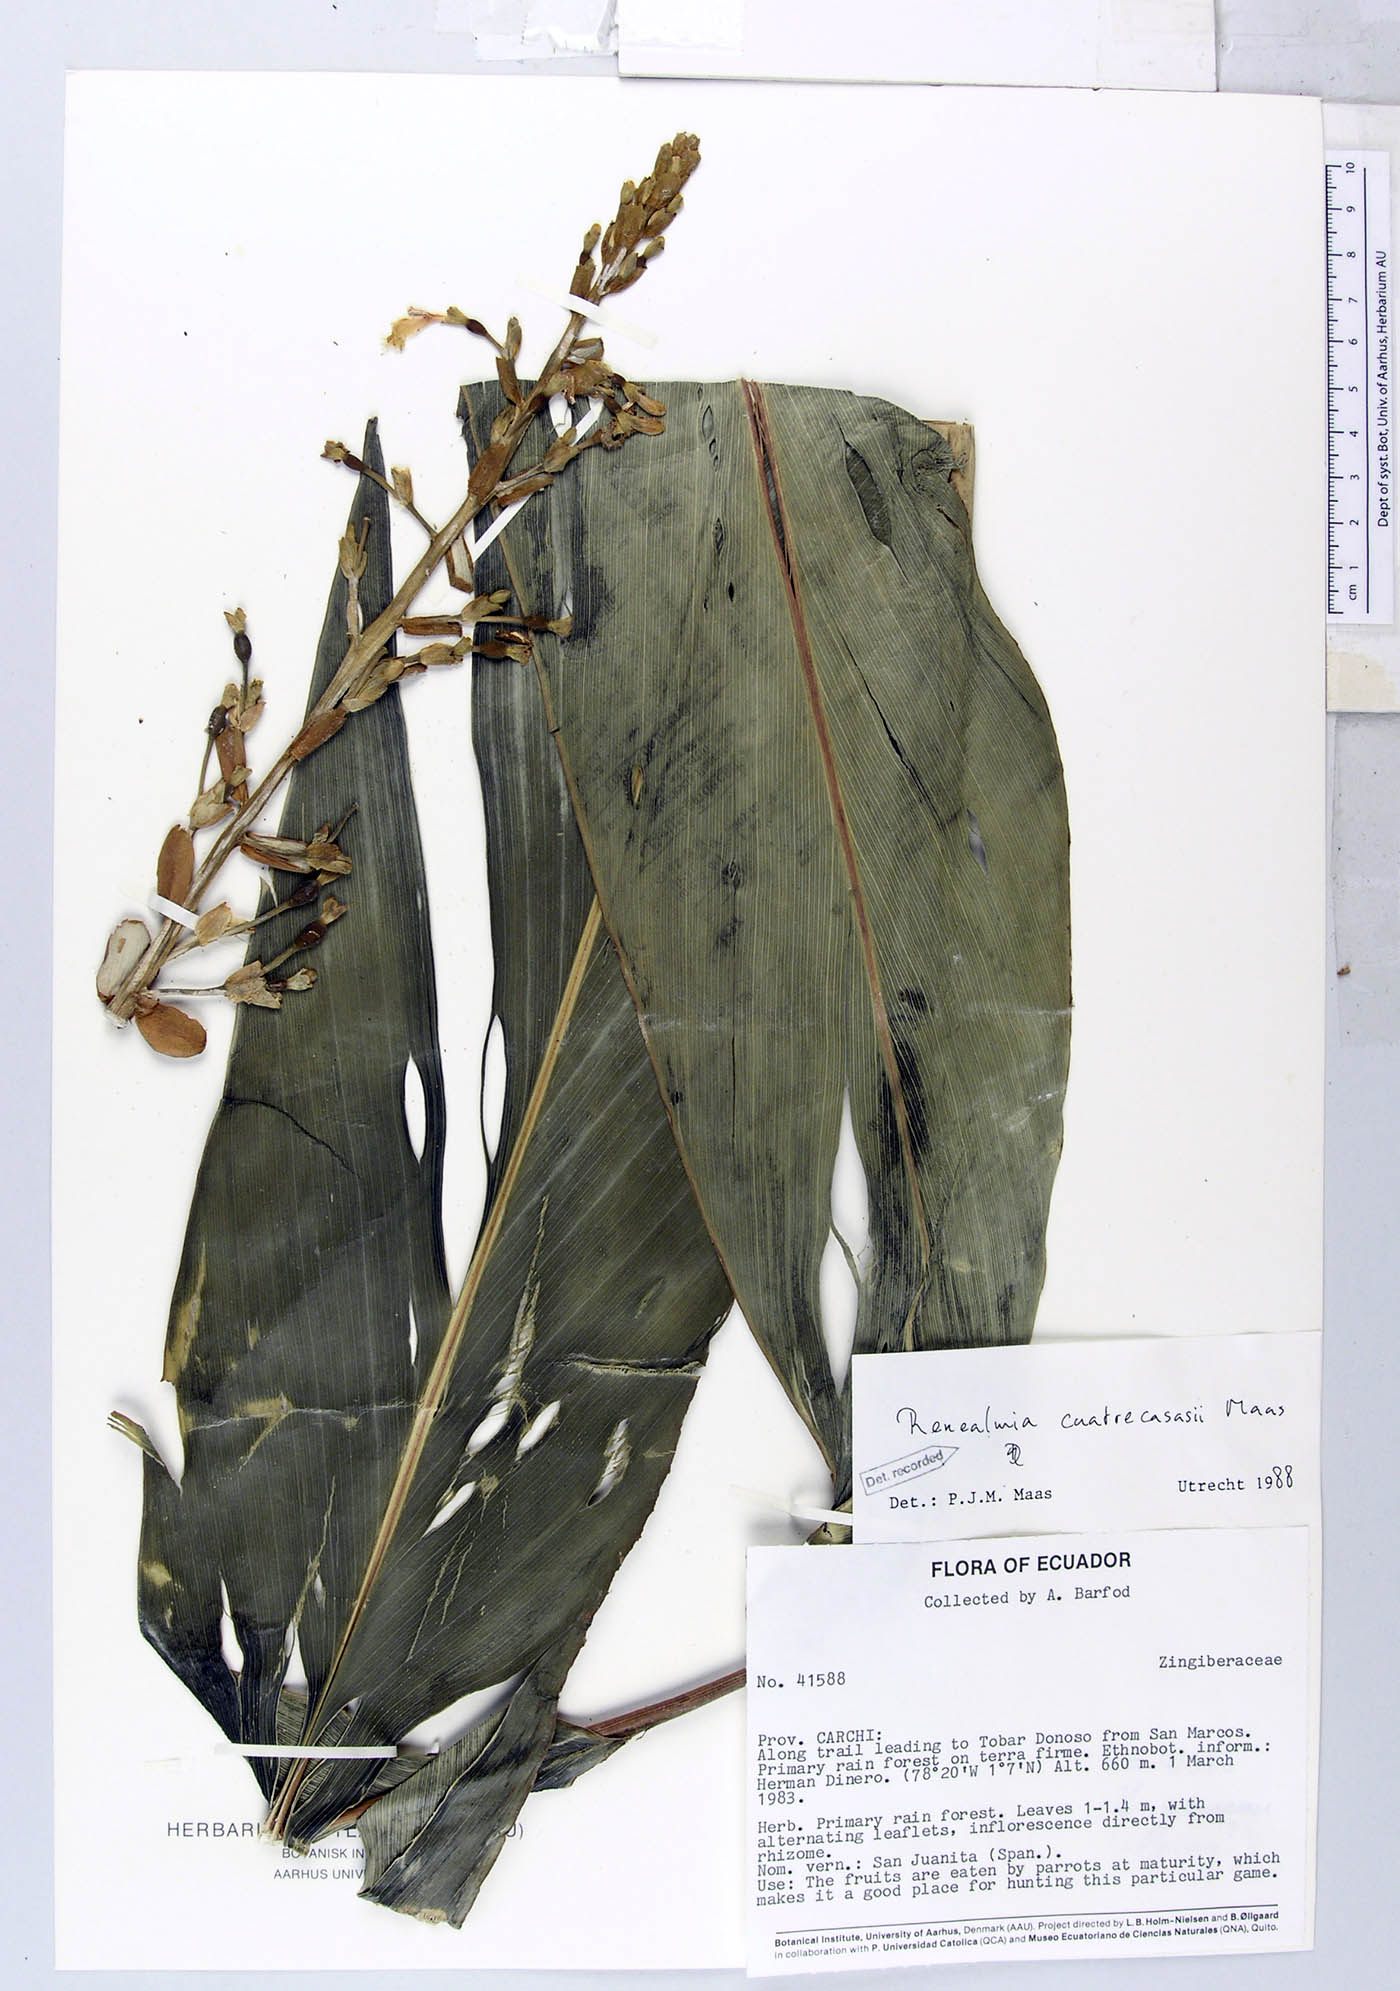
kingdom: Plantae
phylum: Tracheophyta
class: Liliopsida
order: Zingiberales
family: Zingiberaceae
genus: Renealmia
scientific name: Renealmia cuatrecasasii
